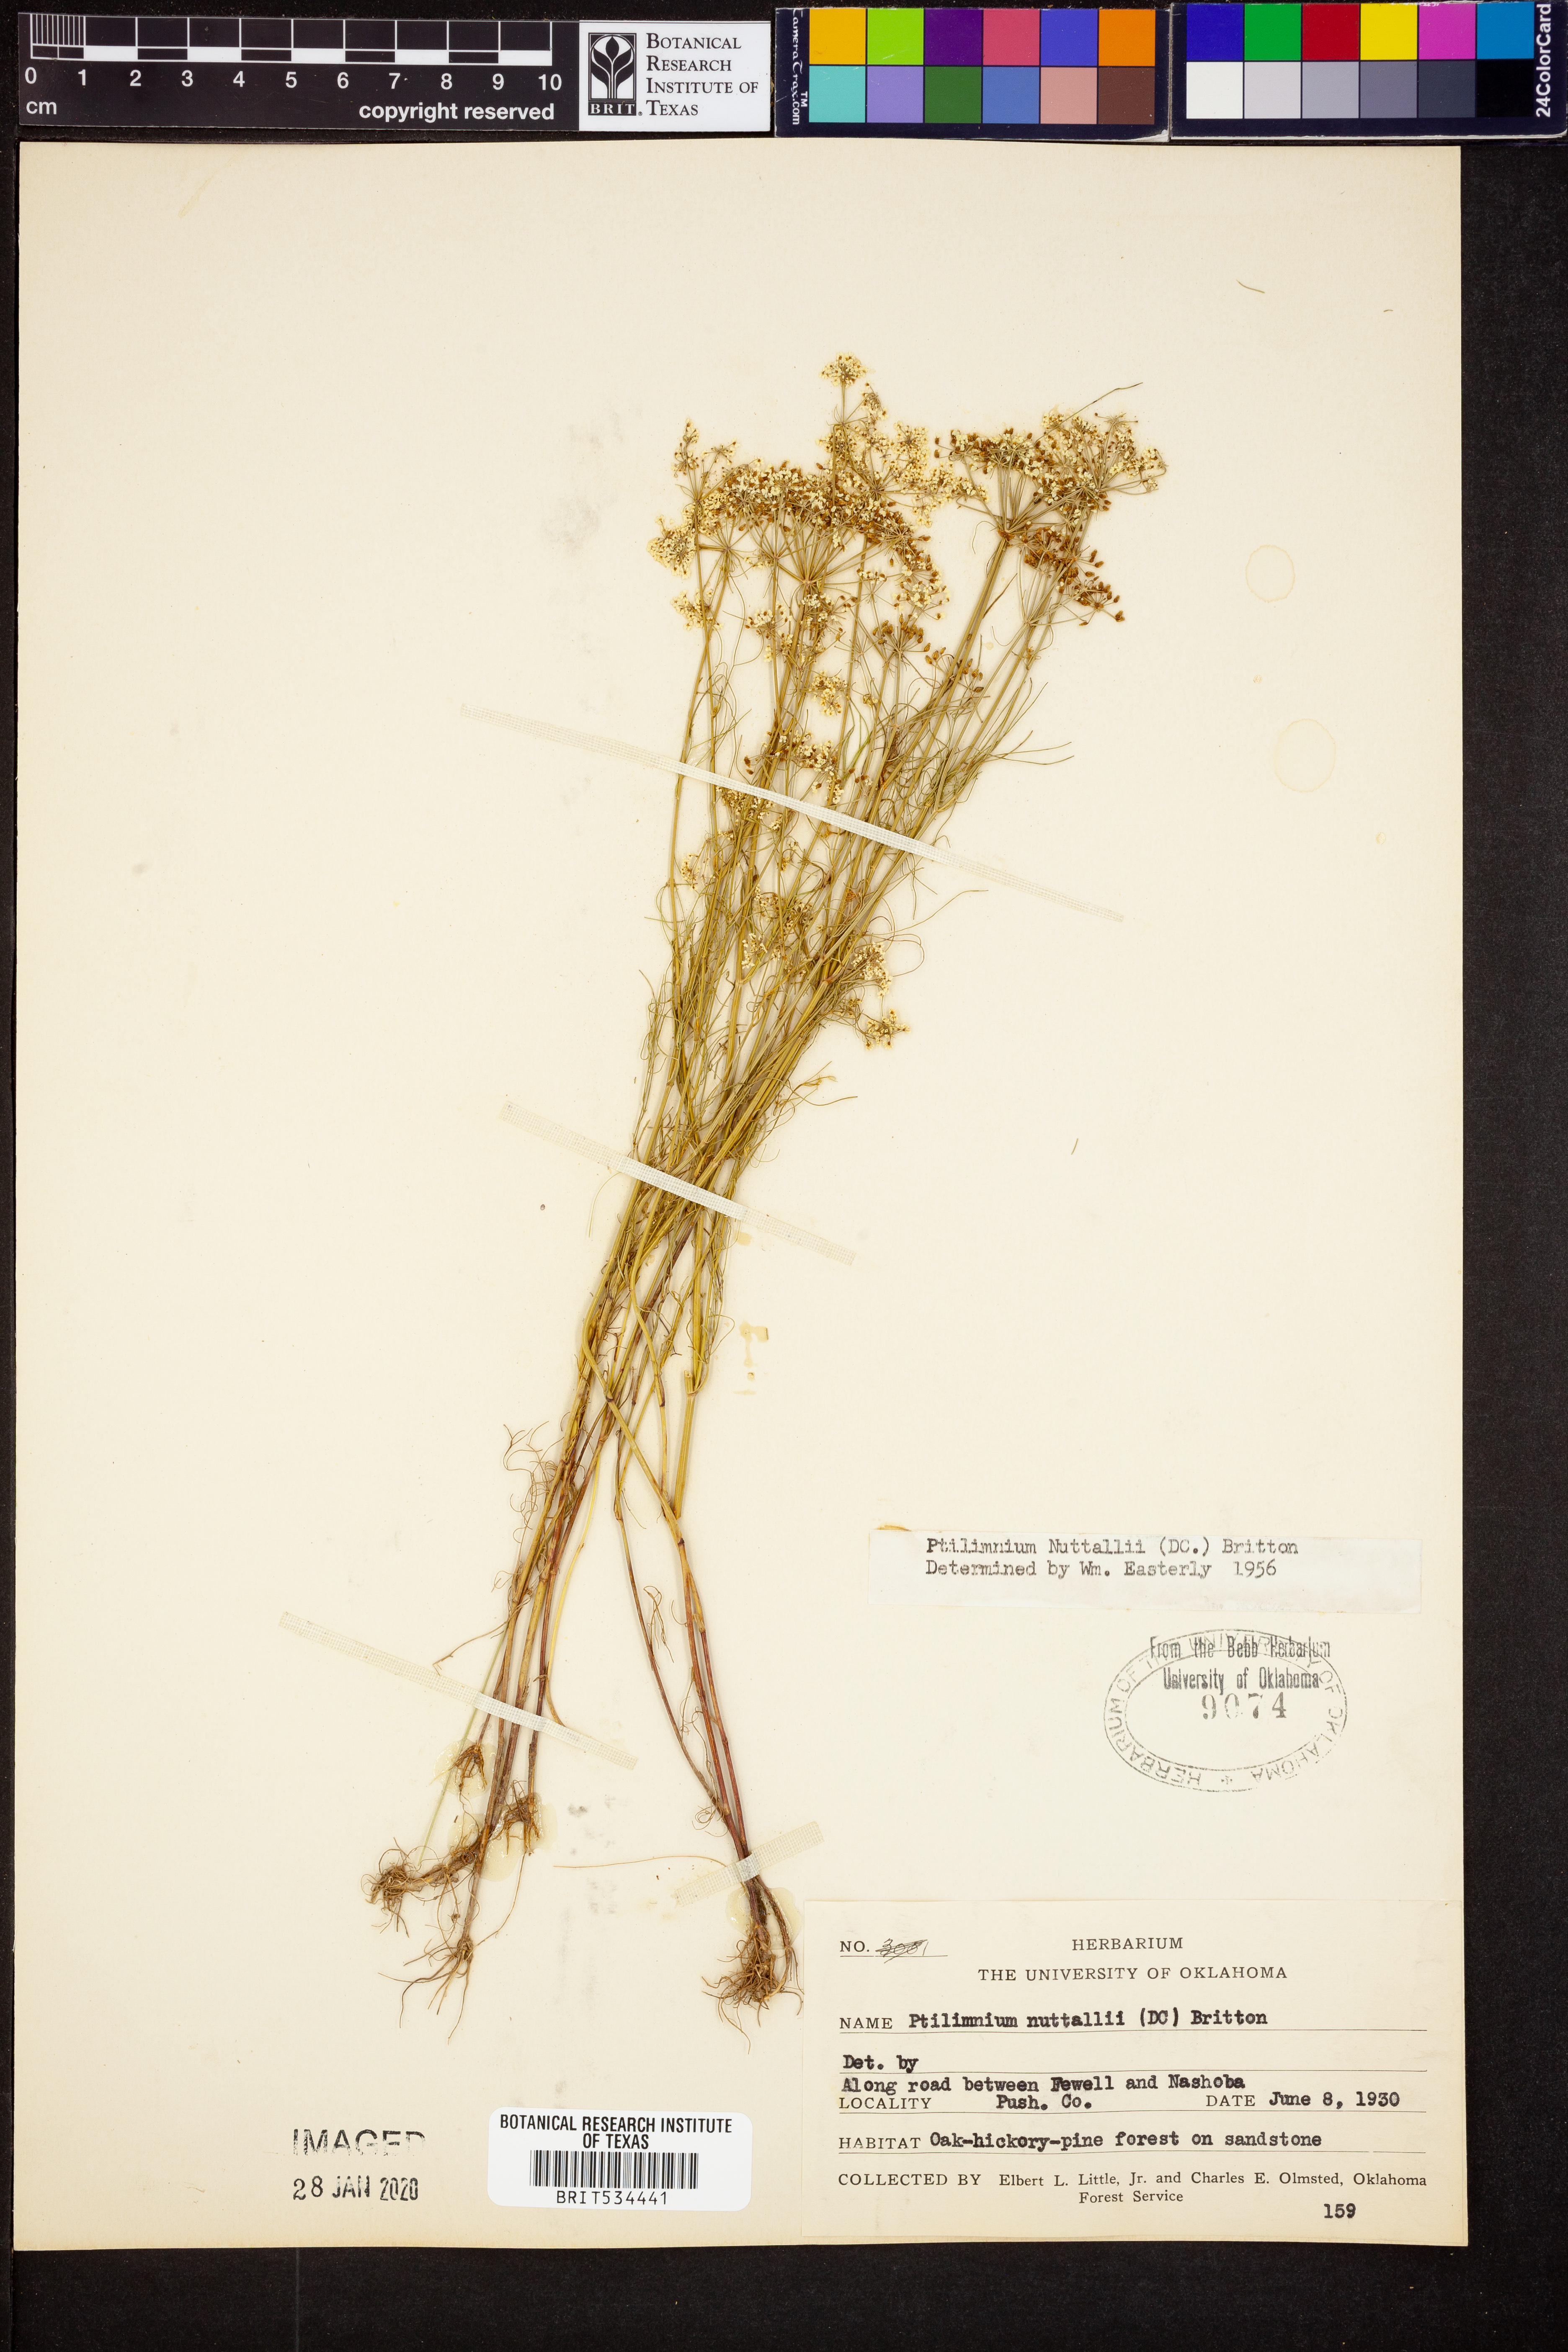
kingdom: Plantae
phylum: Tracheophyta
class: Magnoliopsida
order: Apiales
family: Apiaceae
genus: Ptilimnium
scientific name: Ptilimnium nuttallii
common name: Ozark bishop's-weed
